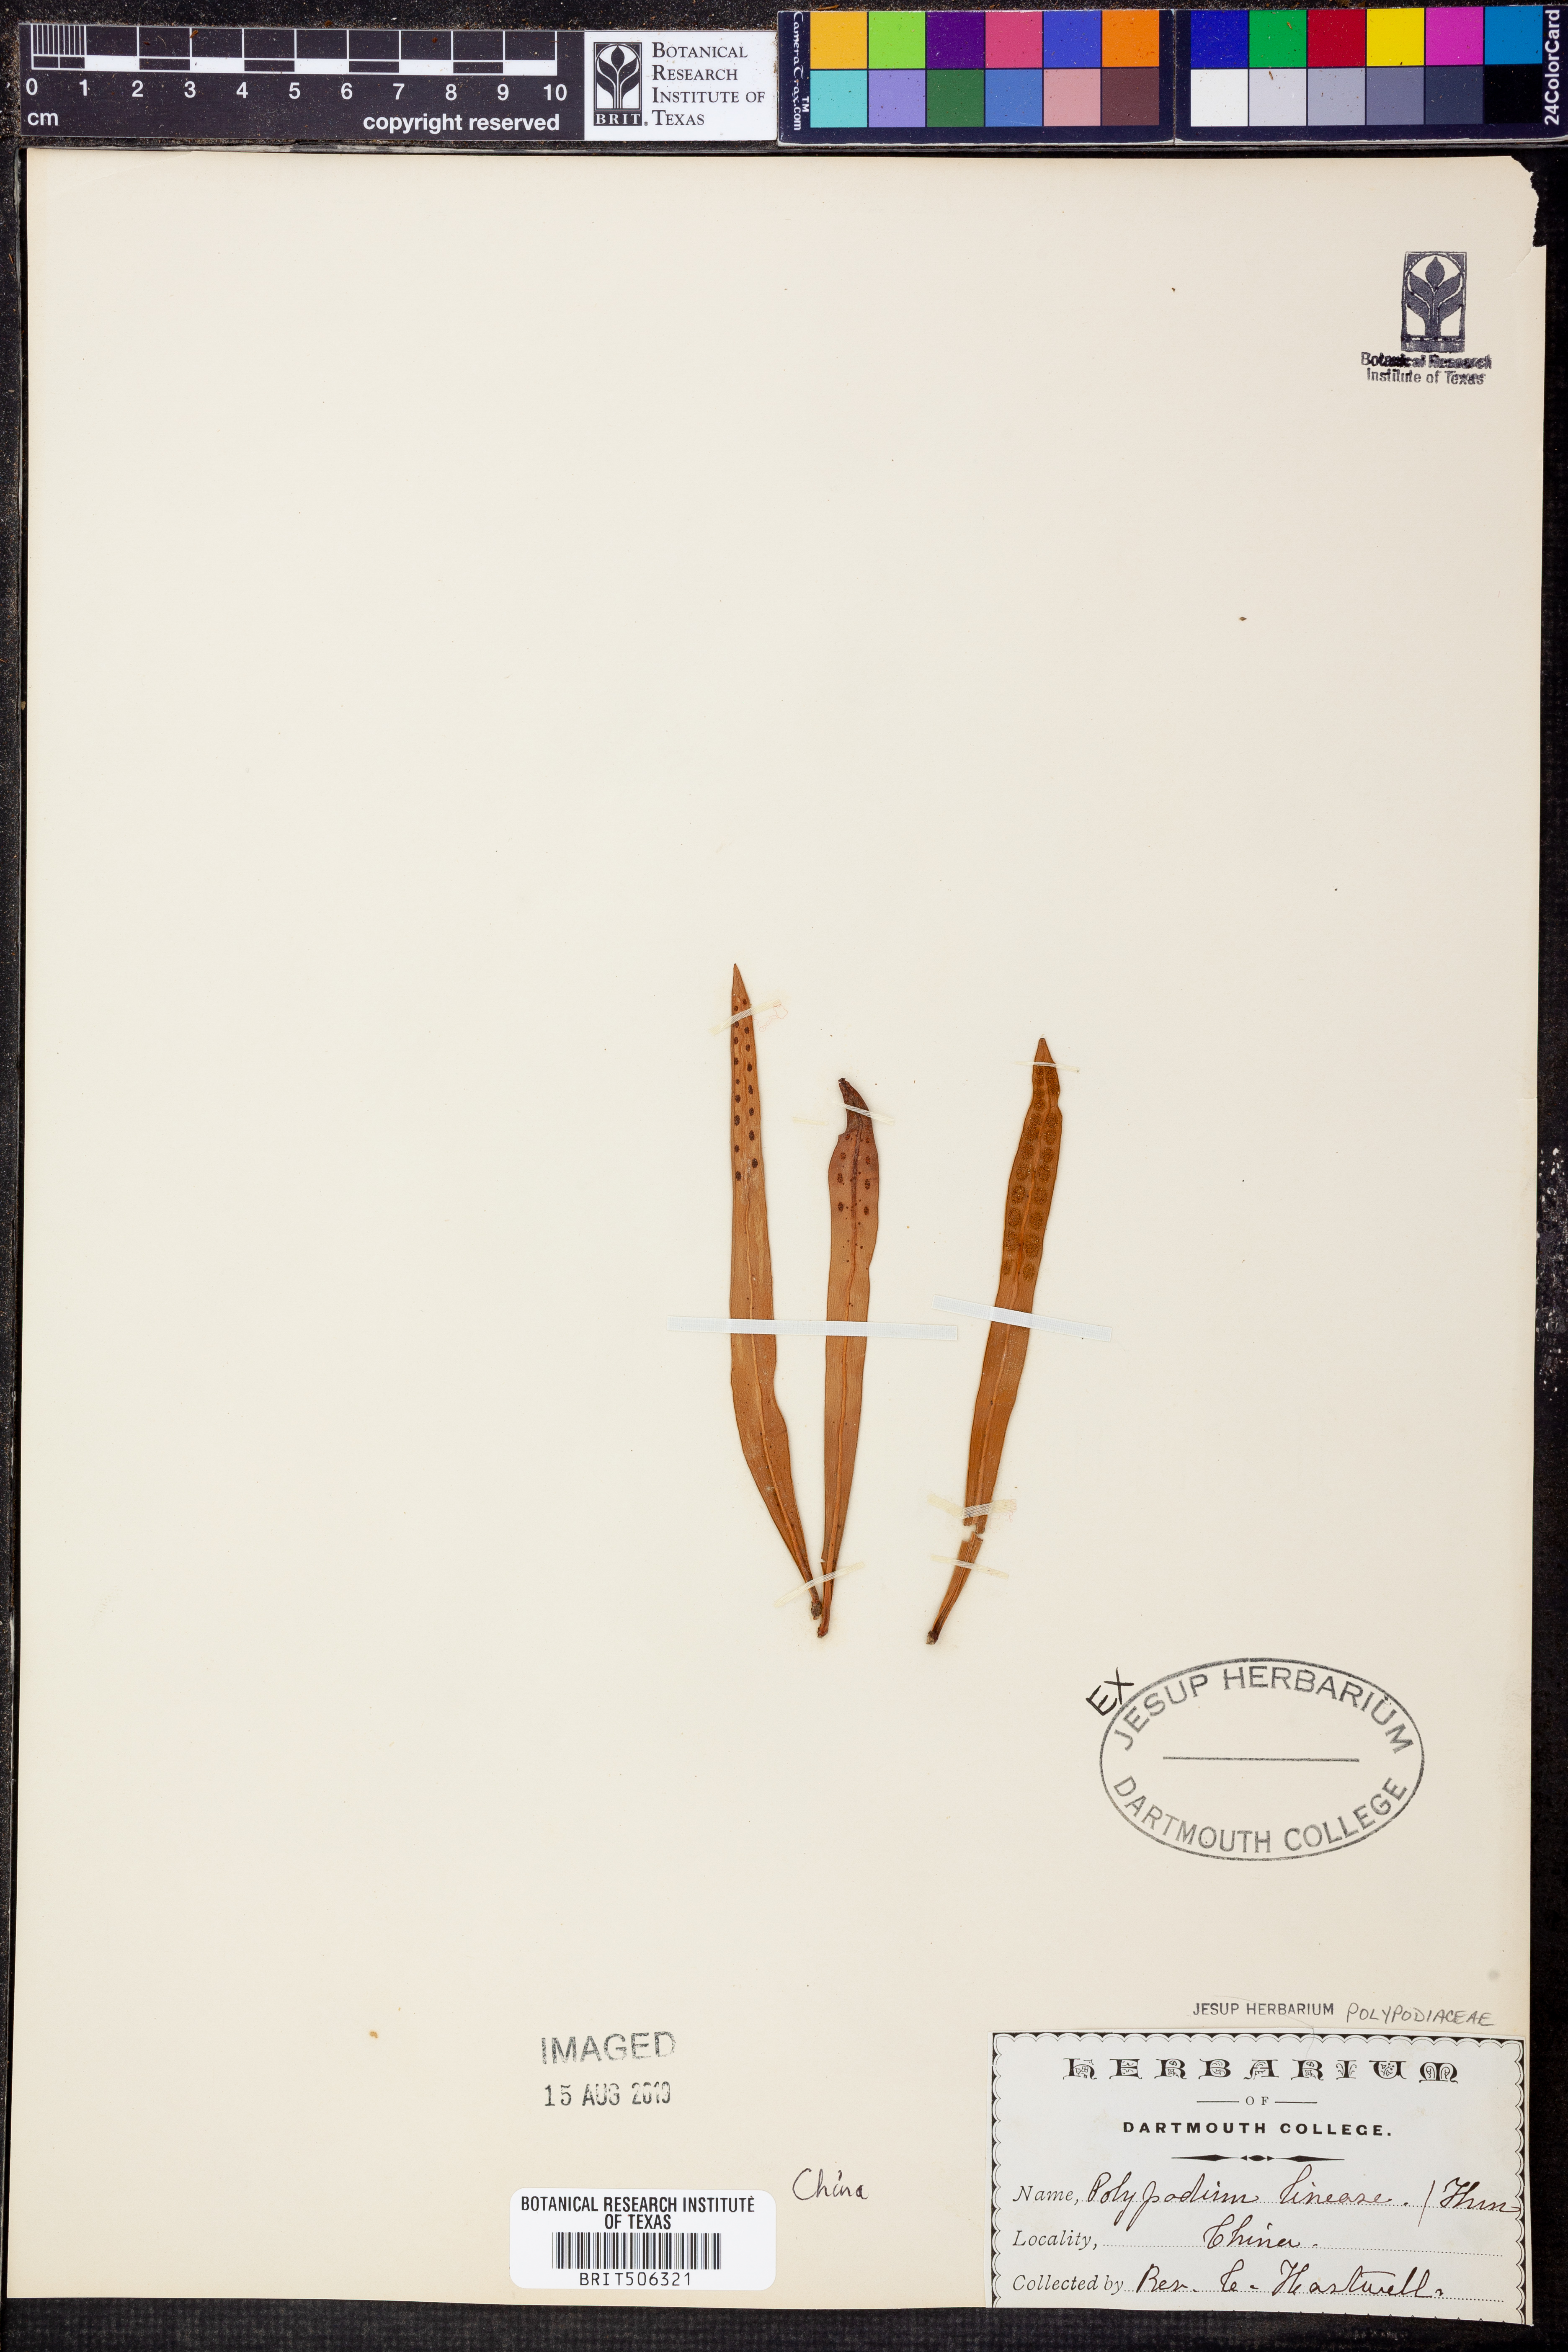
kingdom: Plantae
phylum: Tracheophyta
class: Polypodiopsida
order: Polypodiales
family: Polypodiaceae
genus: Lepisorus
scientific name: Lepisorus thunbergianus
